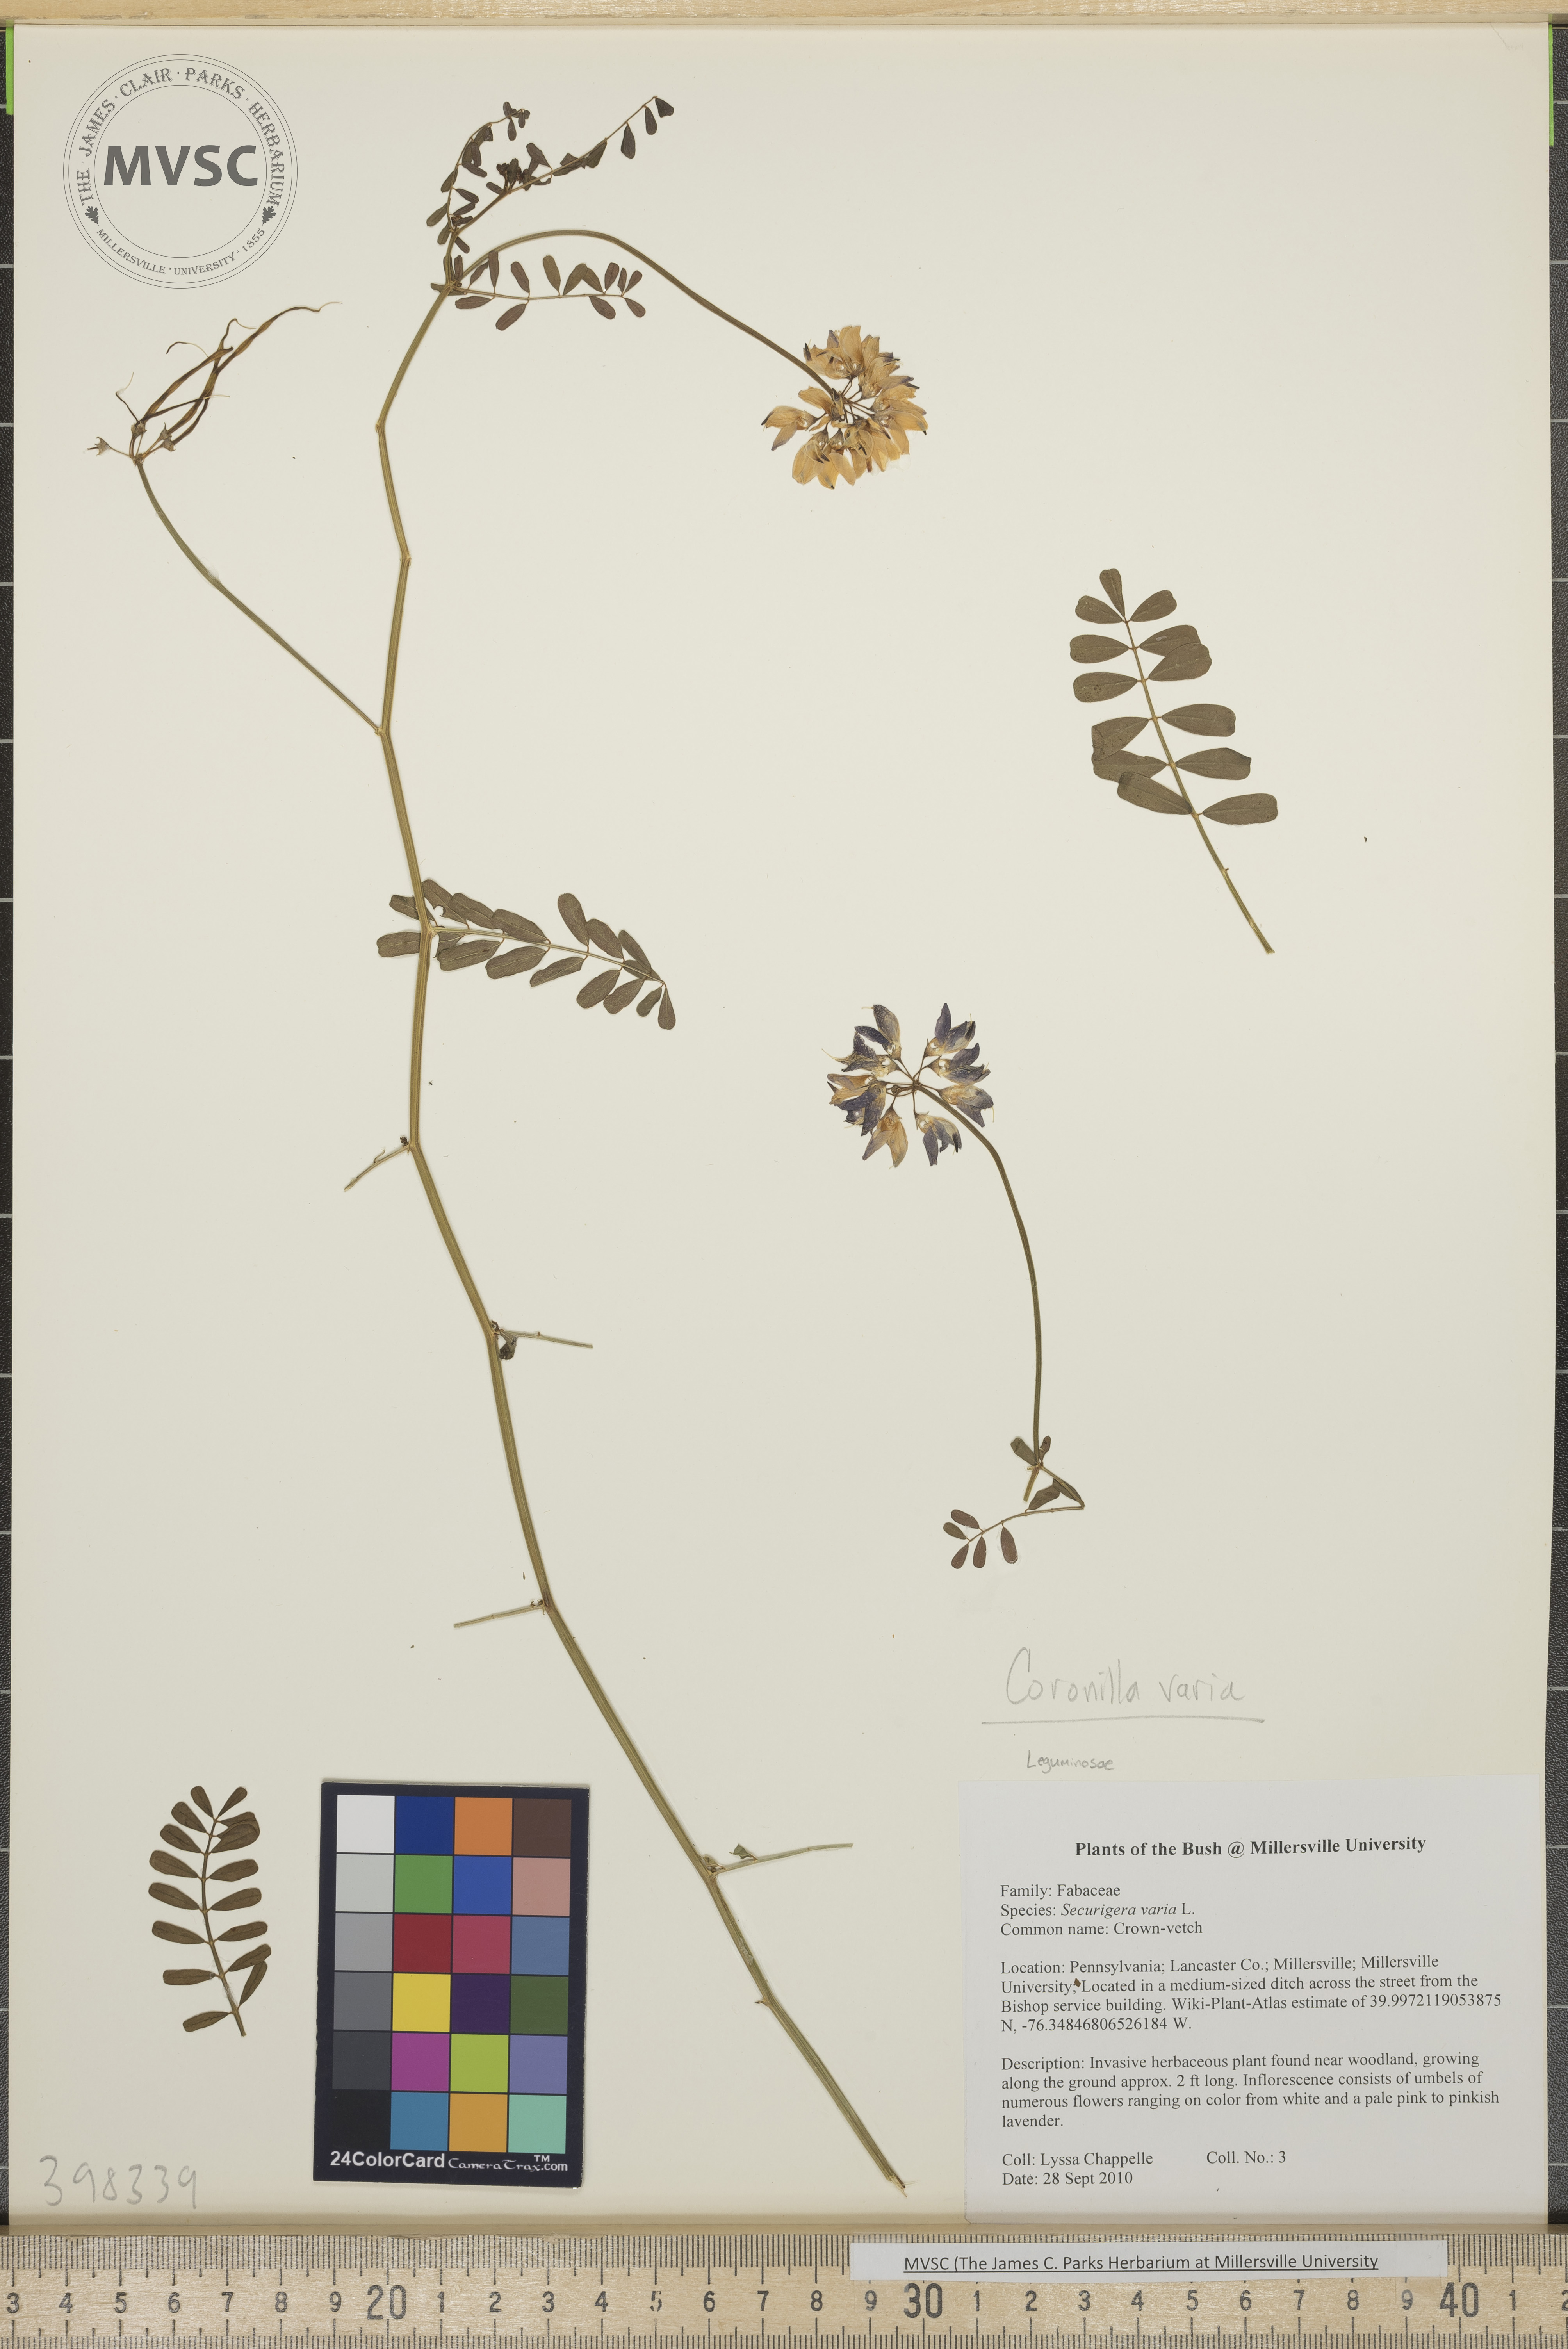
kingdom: Plantae
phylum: Tracheophyta
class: Magnoliopsida
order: Fabales
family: Fabaceae
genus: Coronilla
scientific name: Coronilla varia
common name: Crown-vetch
